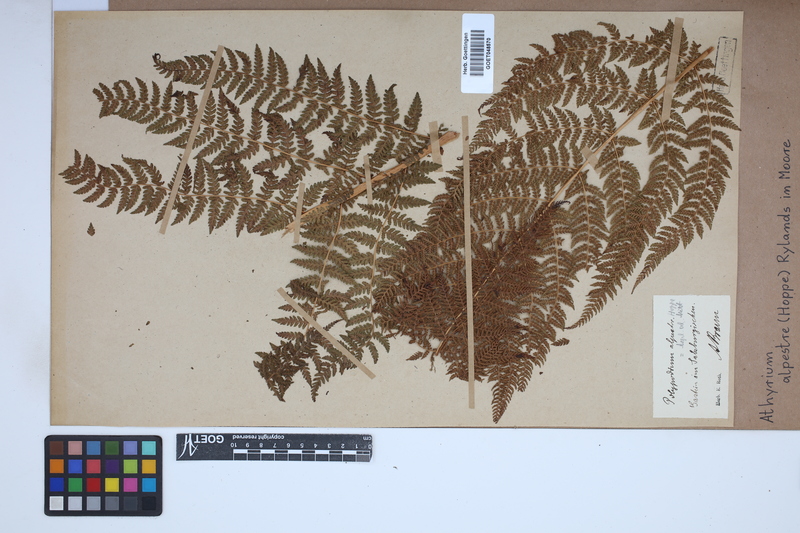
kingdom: Plantae
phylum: Tracheophyta
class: Polypodiopsida
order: Polypodiales
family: Athyriaceae
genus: Pseudathyrium
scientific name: Pseudathyrium alpestre
